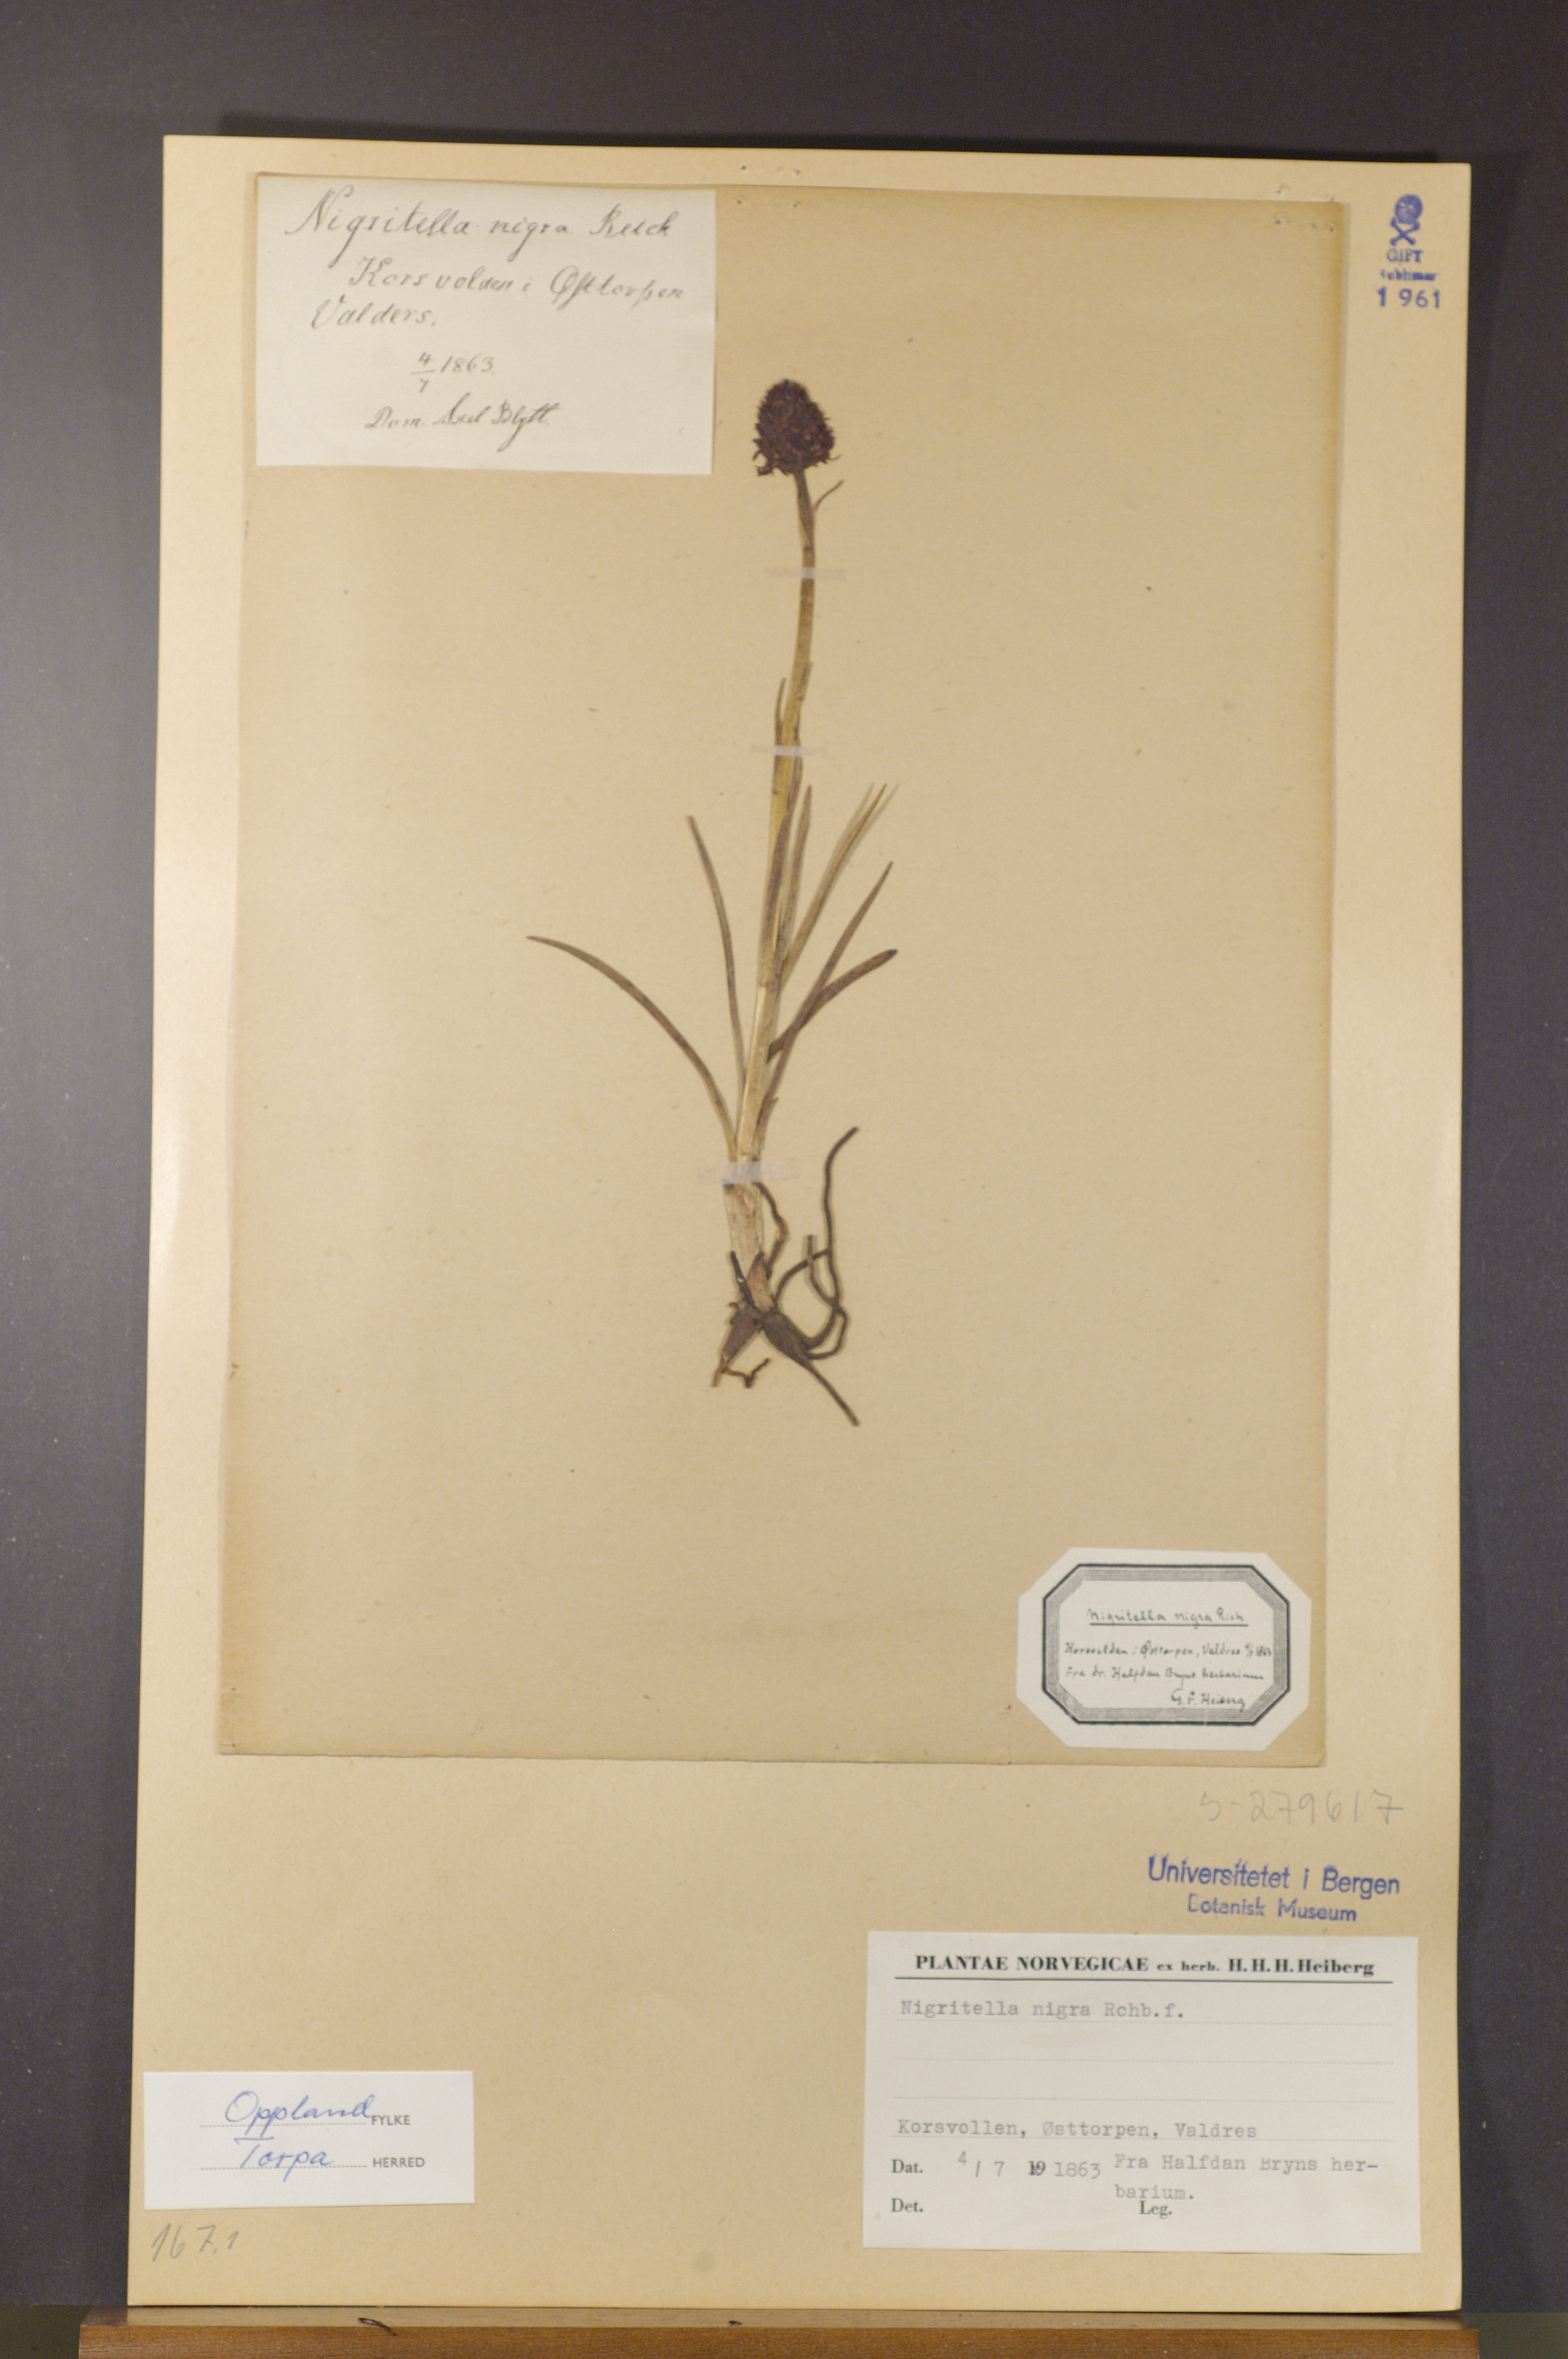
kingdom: Plantae
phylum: Tracheophyta
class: Liliopsida
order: Asparagales
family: Orchidaceae
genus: Gymnadenia
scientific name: Gymnadenia nigra
